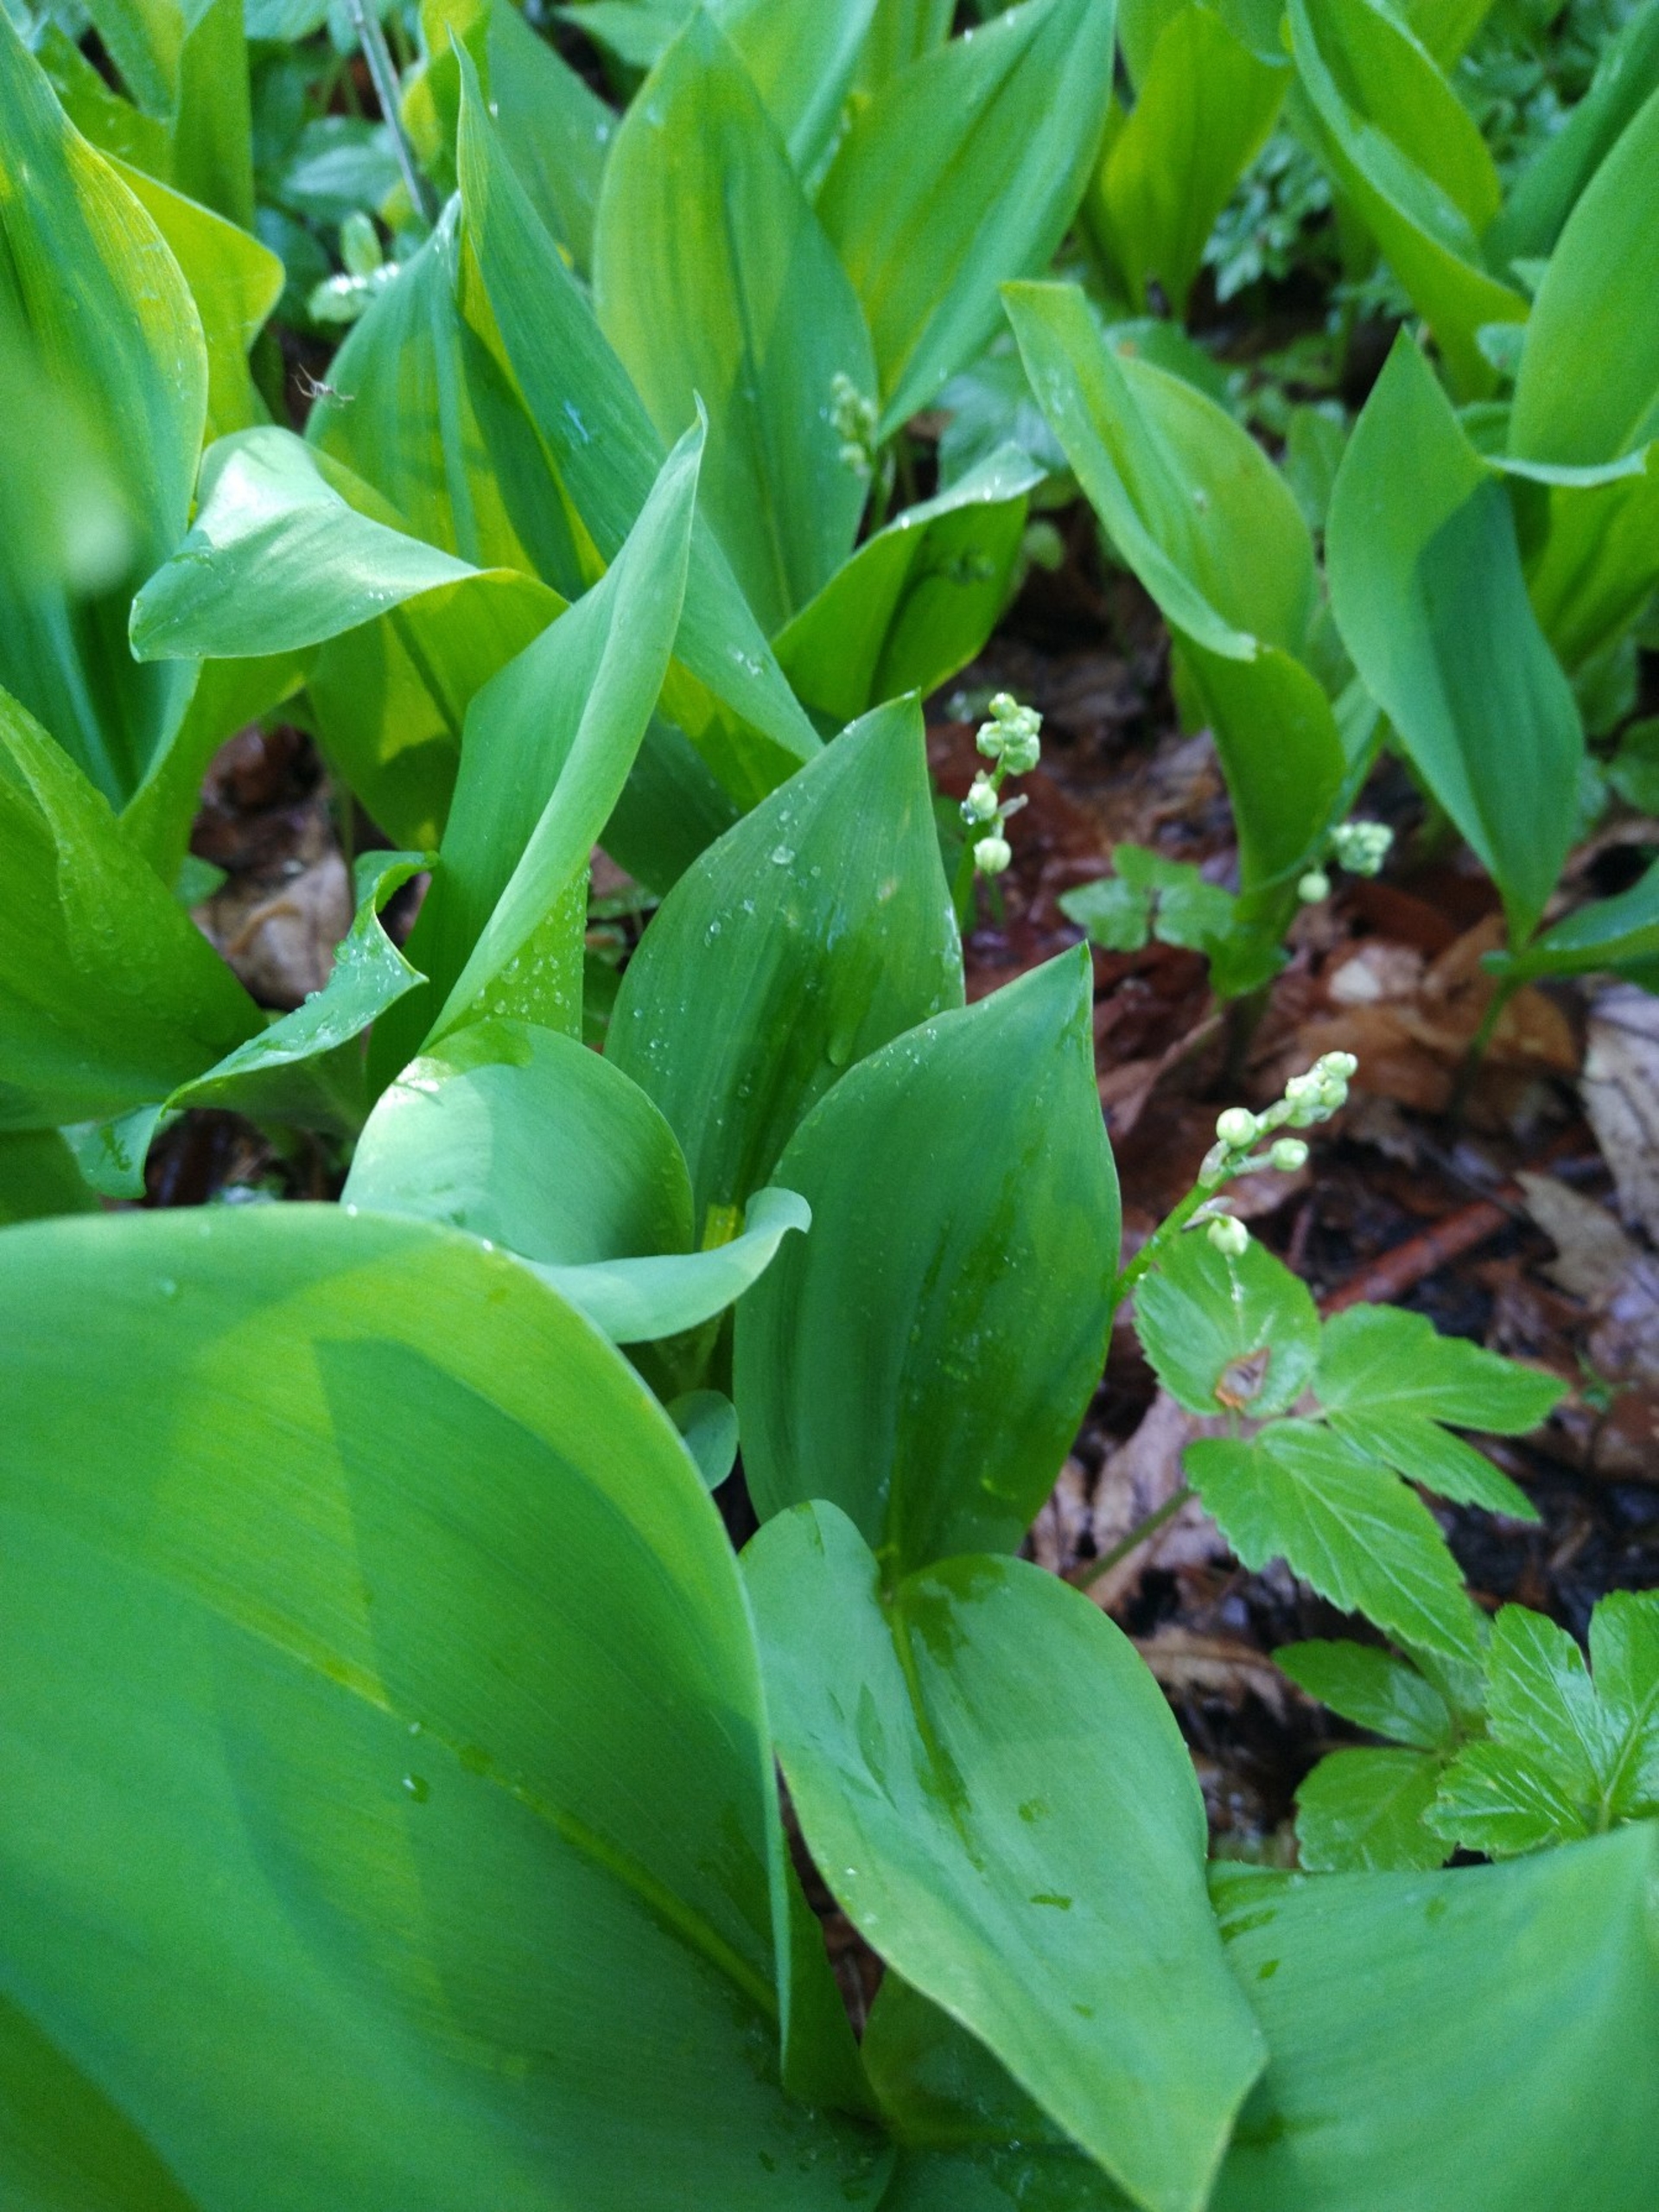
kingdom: Plantae
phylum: Tracheophyta
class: Liliopsida
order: Asparagales
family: Asparagaceae
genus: Convallaria
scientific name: Convallaria majalis
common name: Liljekonval
